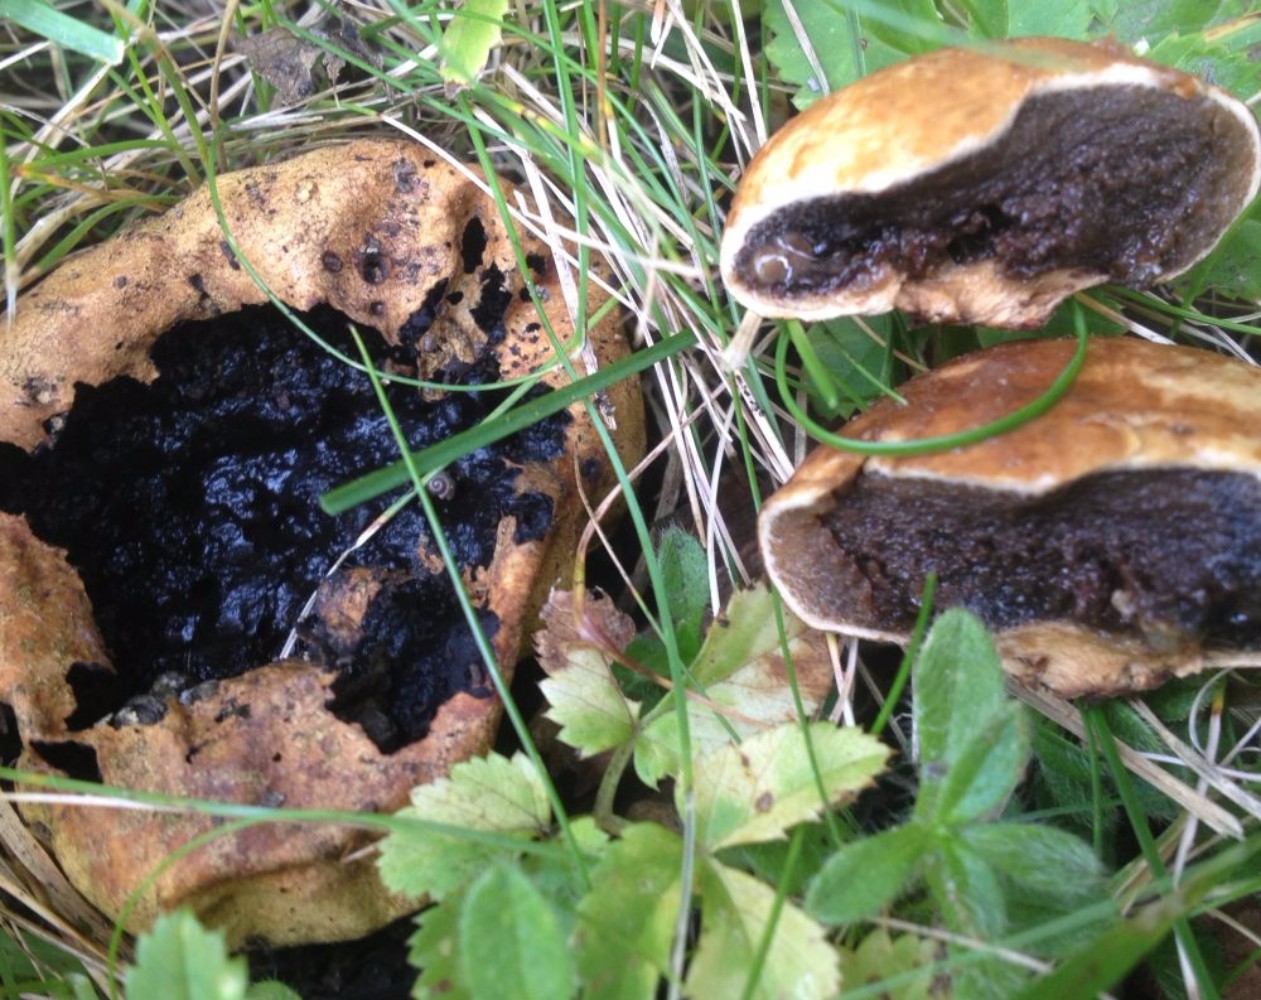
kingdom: Fungi
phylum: Basidiomycota
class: Agaricomycetes
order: Boletales
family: Sclerodermataceae
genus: Scleroderma
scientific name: Scleroderma
